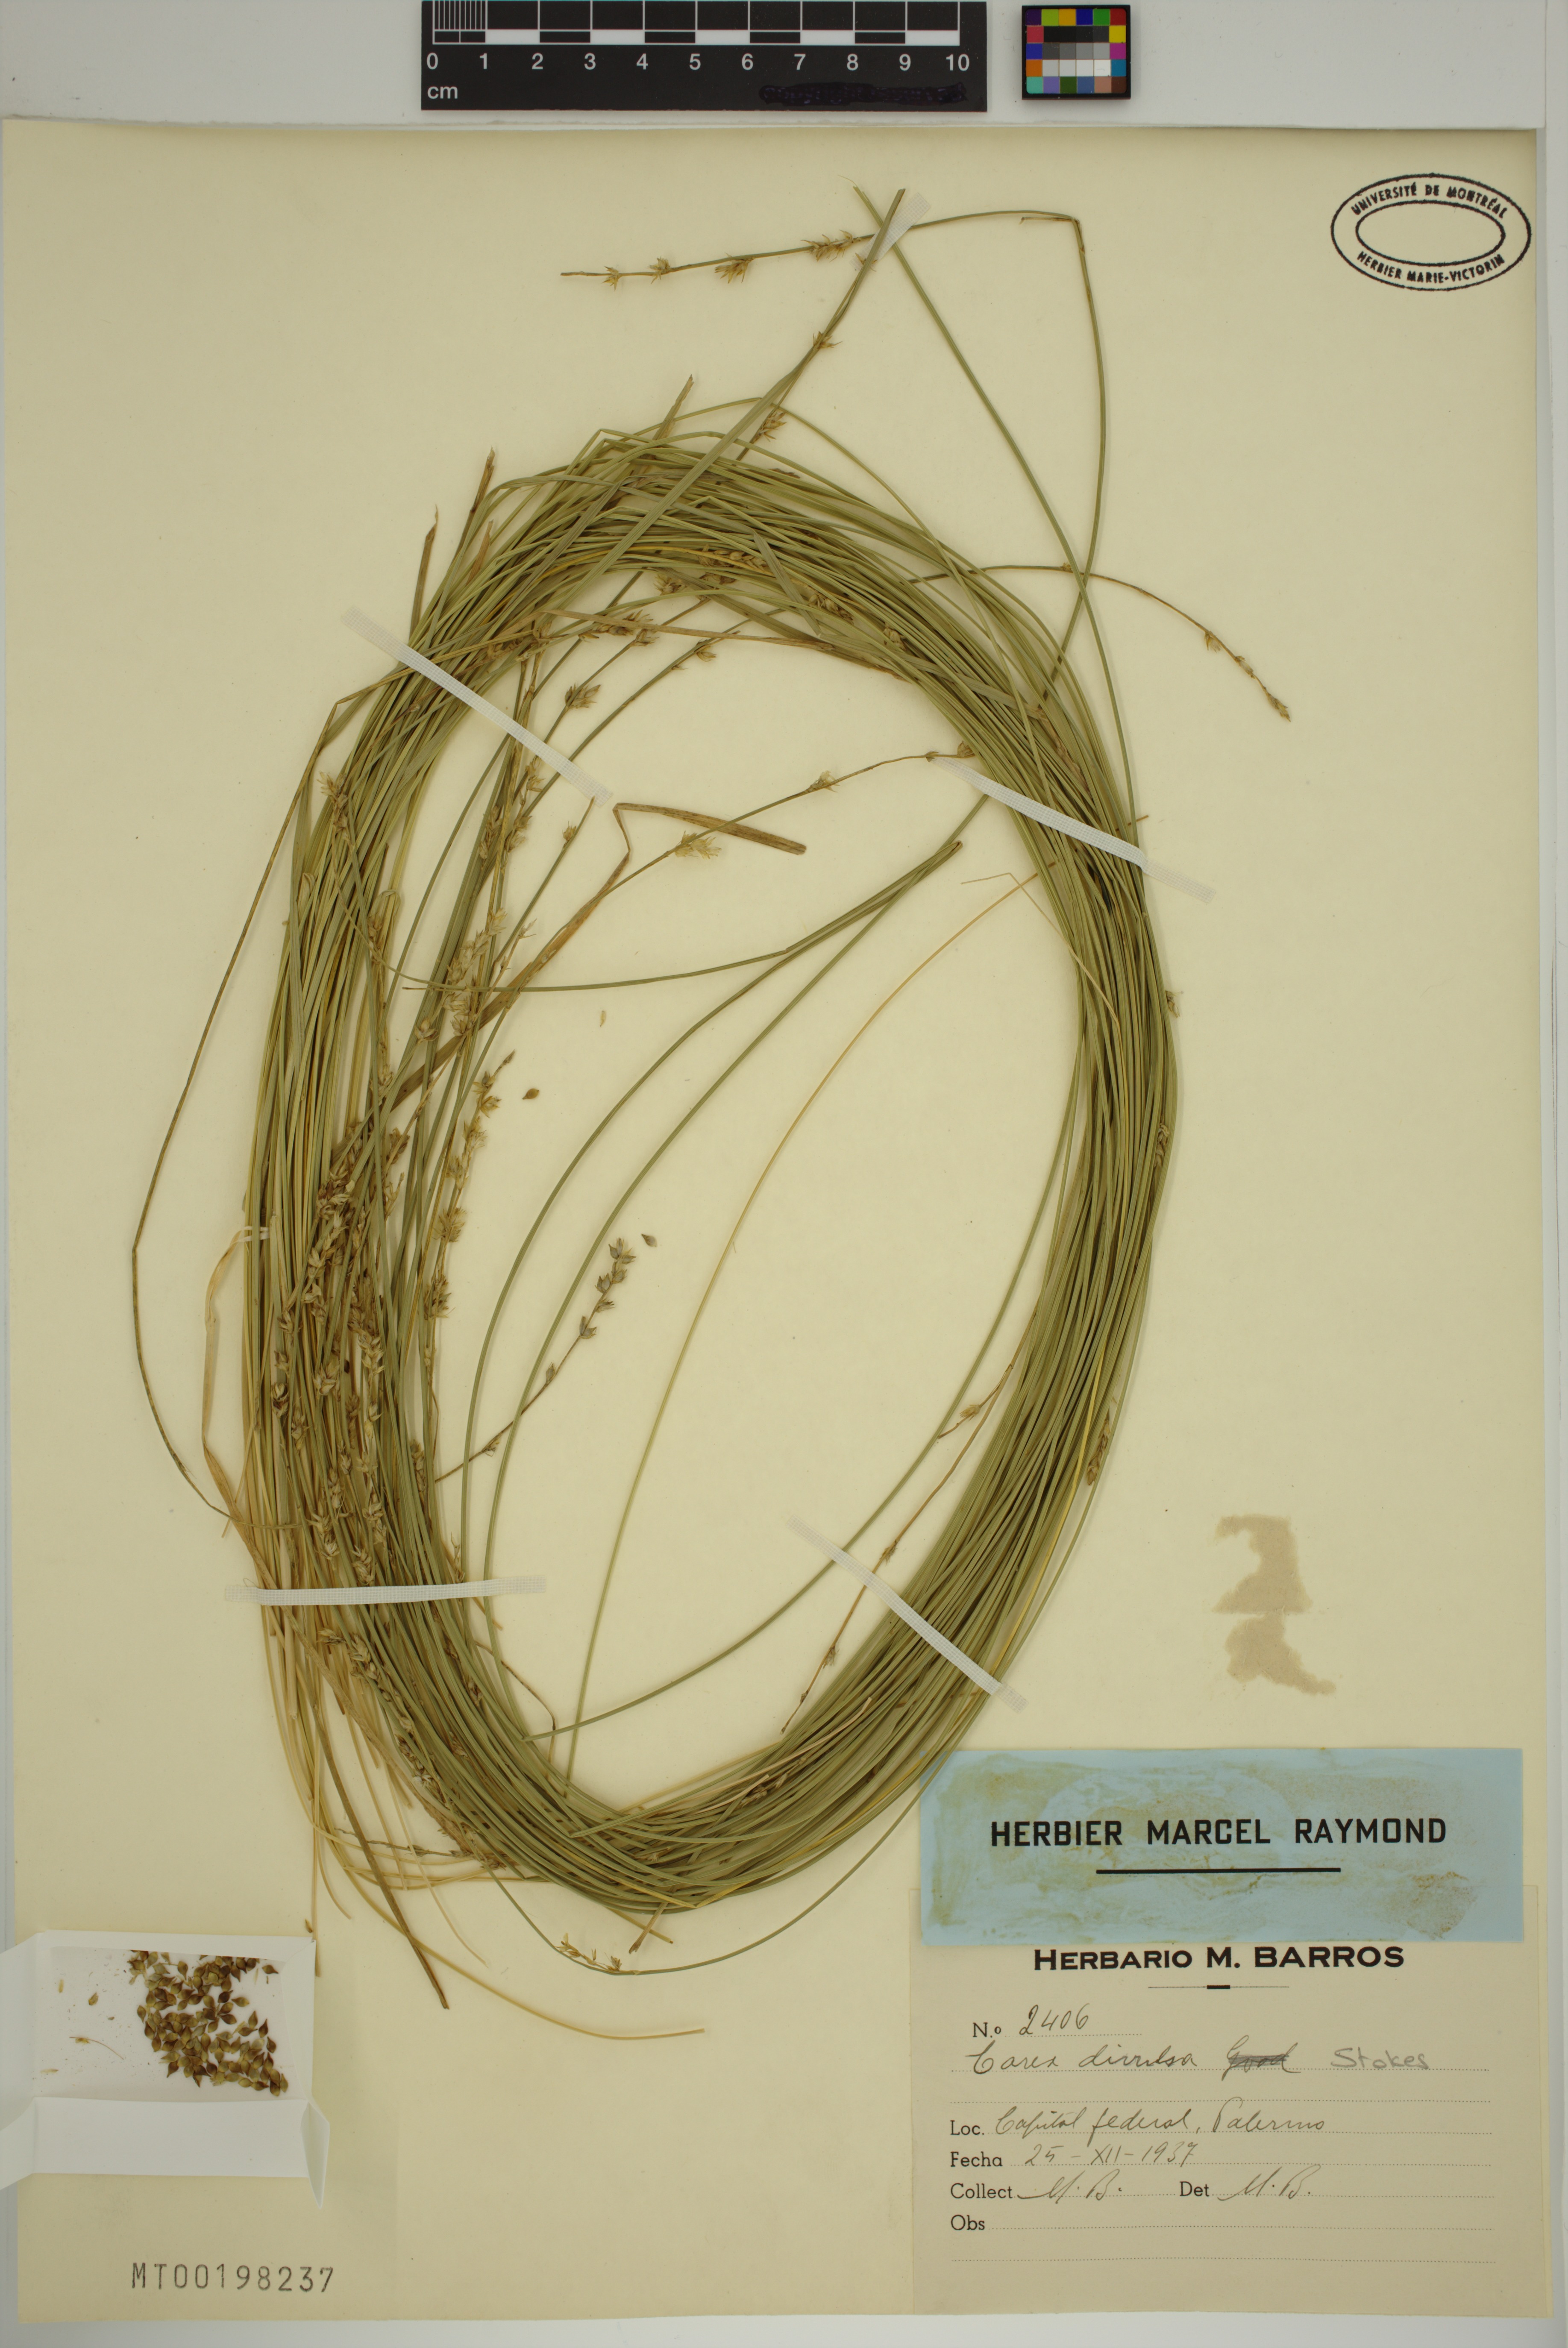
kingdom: Plantae
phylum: Tracheophyta
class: Liliopsida
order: Poales
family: Cyperaceae
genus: Carex
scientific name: Carex divulsa
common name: Grassland sedge
